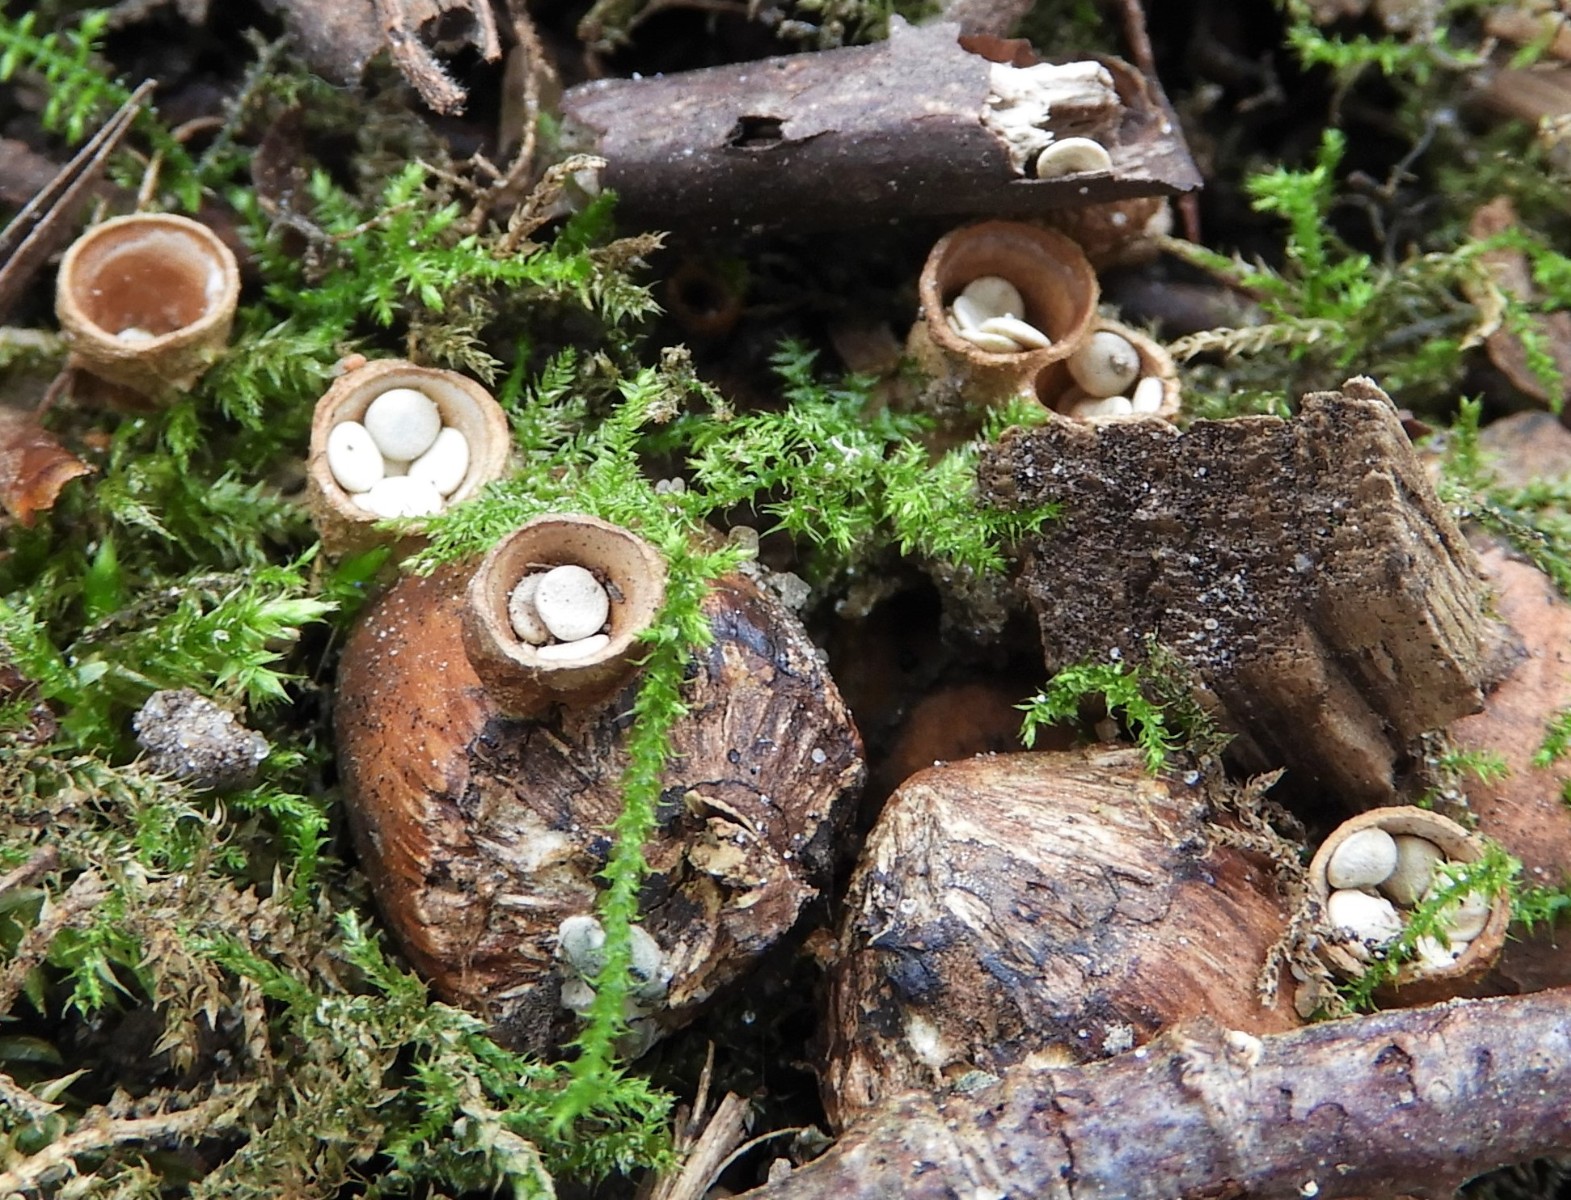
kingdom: Fungi
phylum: Basidiomycota
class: Agaricomycetes
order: Agaricales
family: Nidulariaceae
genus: Crucibulum
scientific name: Crucibulum crucibuliforme
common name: krukkesvamp
